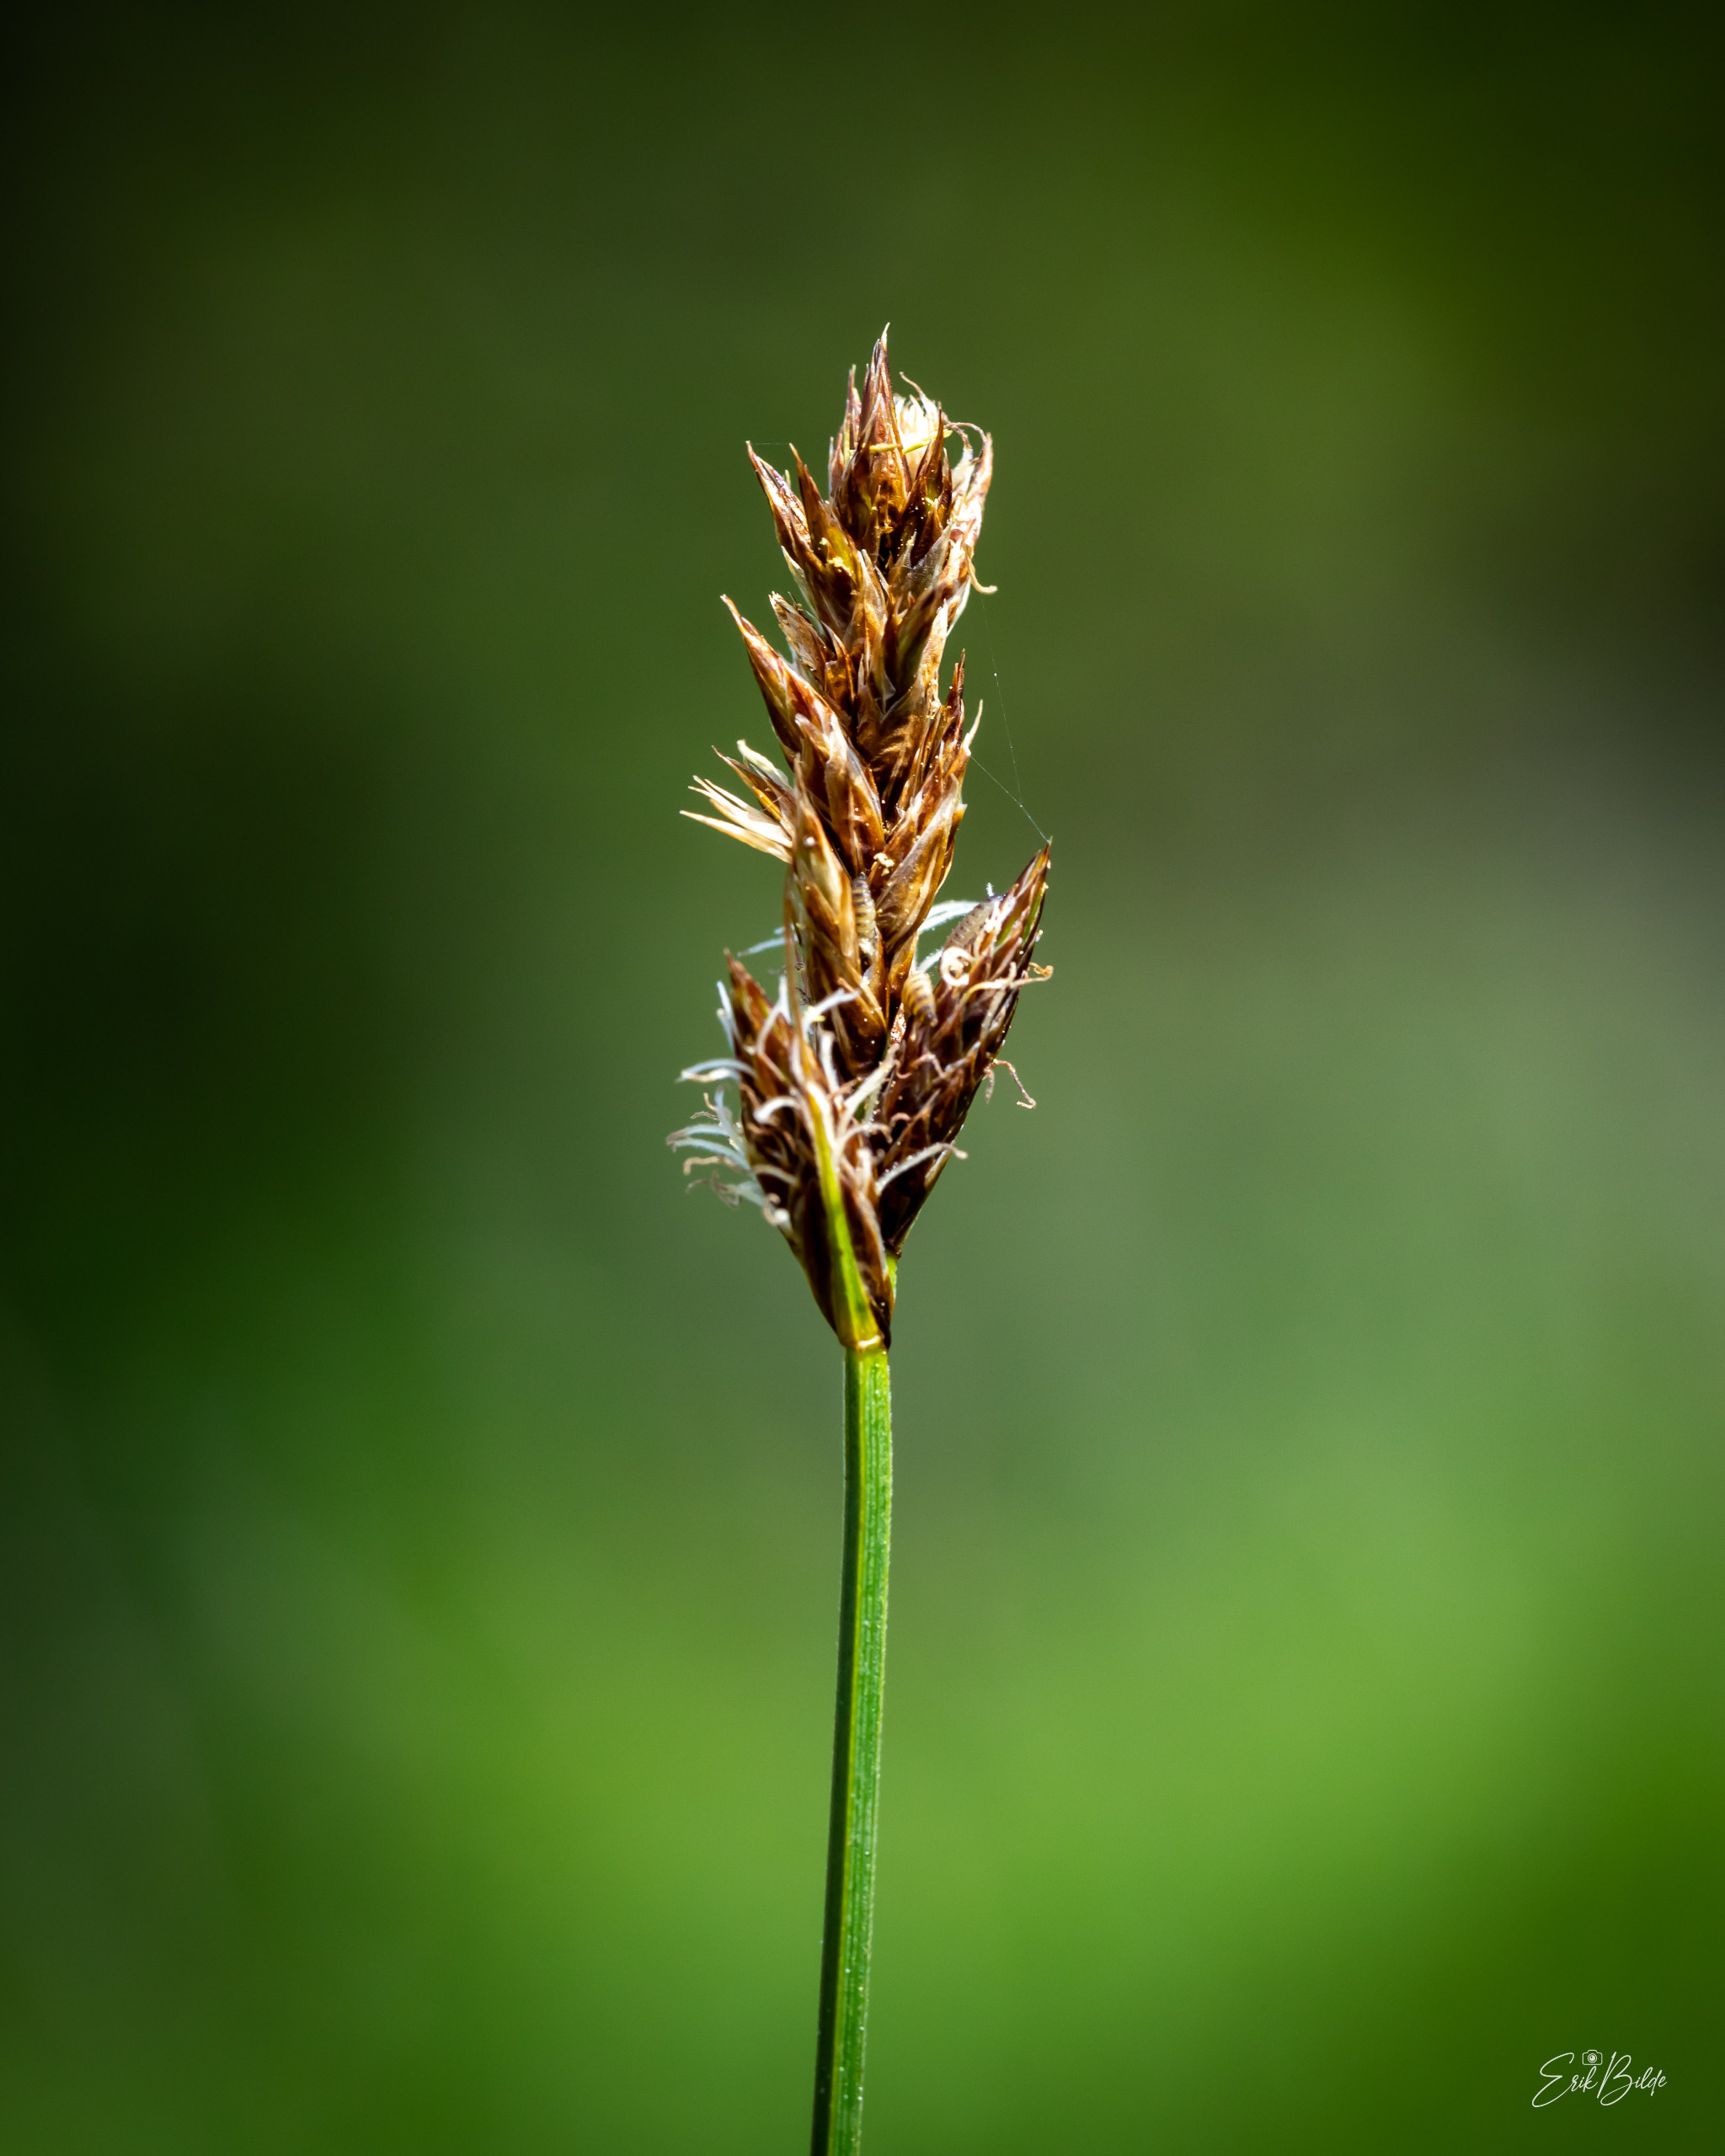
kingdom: Plantae
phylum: Tracheophyta
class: Liliopsida
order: Poales
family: Cyperaceae
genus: Carex
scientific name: Carex disticha
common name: Toradet star
